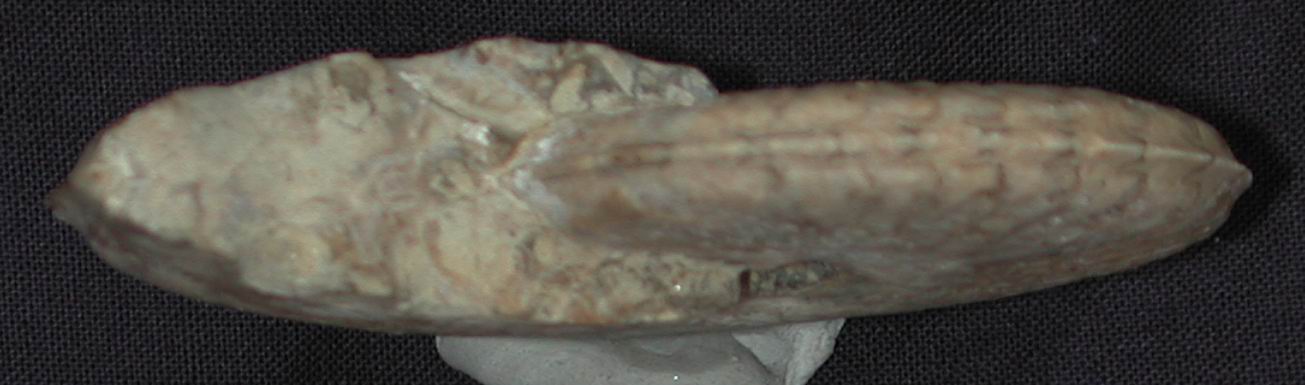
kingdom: Animalia
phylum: Mollusca
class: Cephalopoda
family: Graphoceratidae
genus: Hyperlioceras
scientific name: Hyperlioceras
